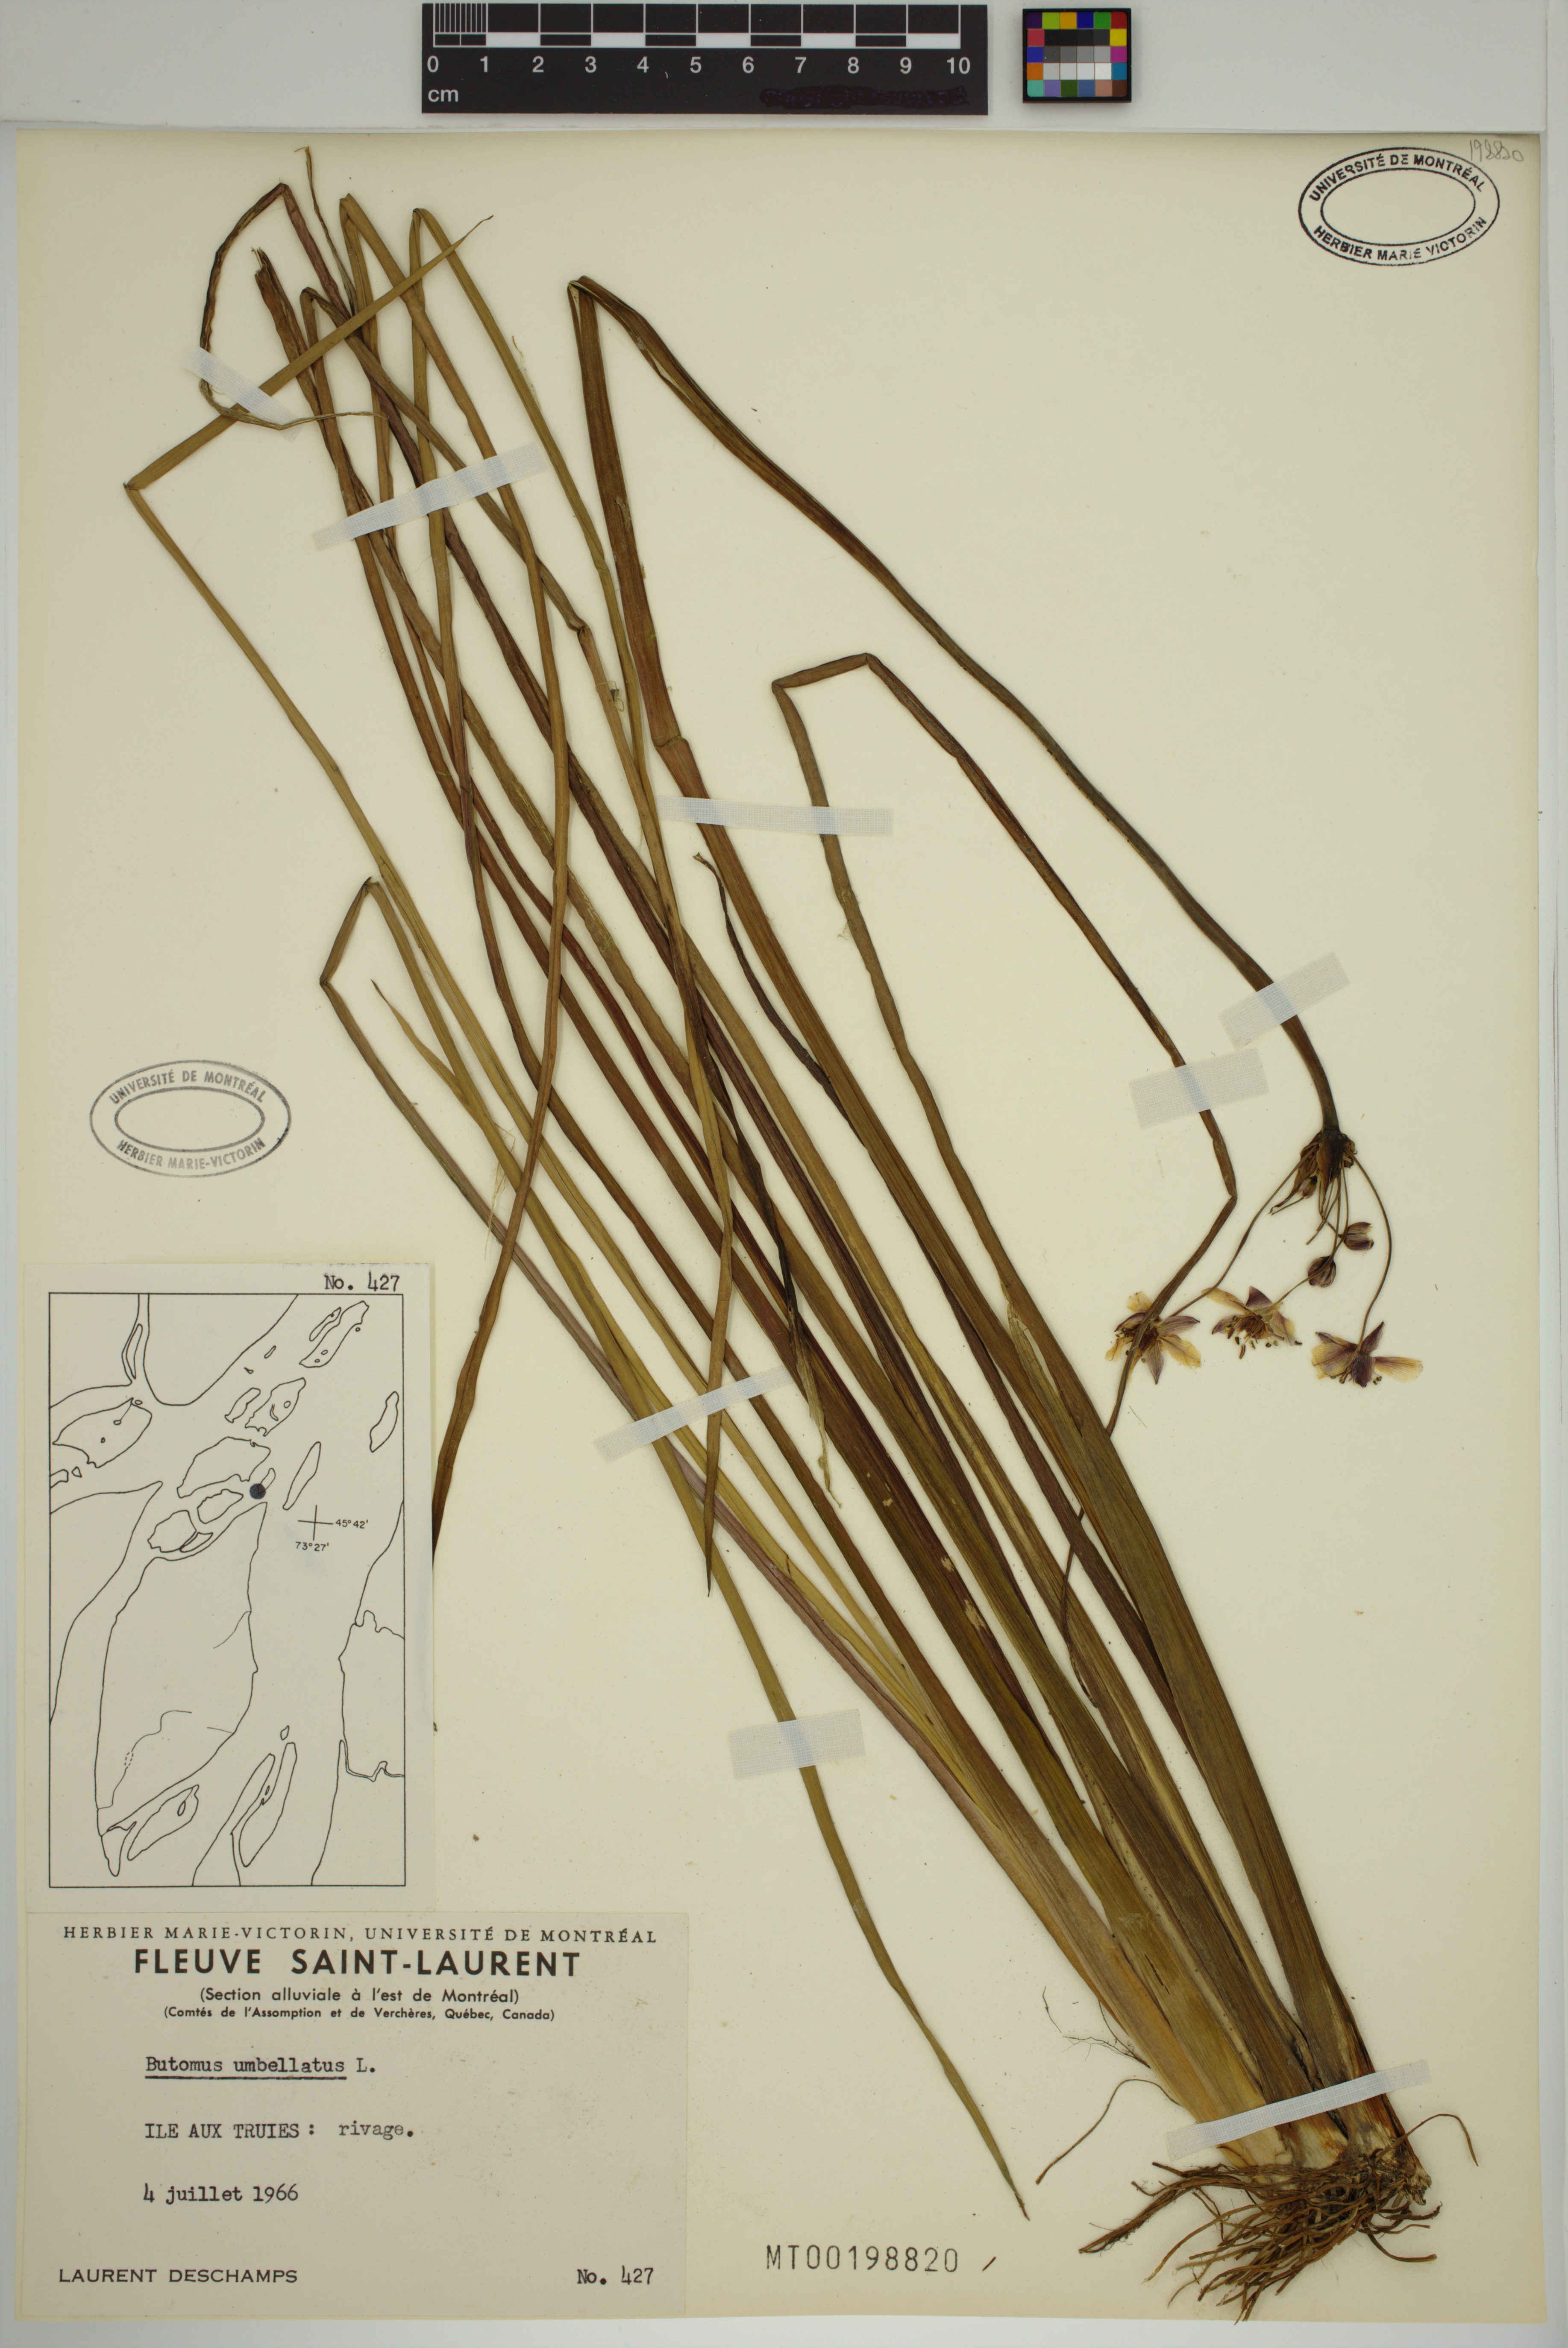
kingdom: Plantae
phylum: Tracheophyta
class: Liliopsida
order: Alismatales
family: Butomaceae
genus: Butomus
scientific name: Butomus umbellatus
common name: Flowering-rush
